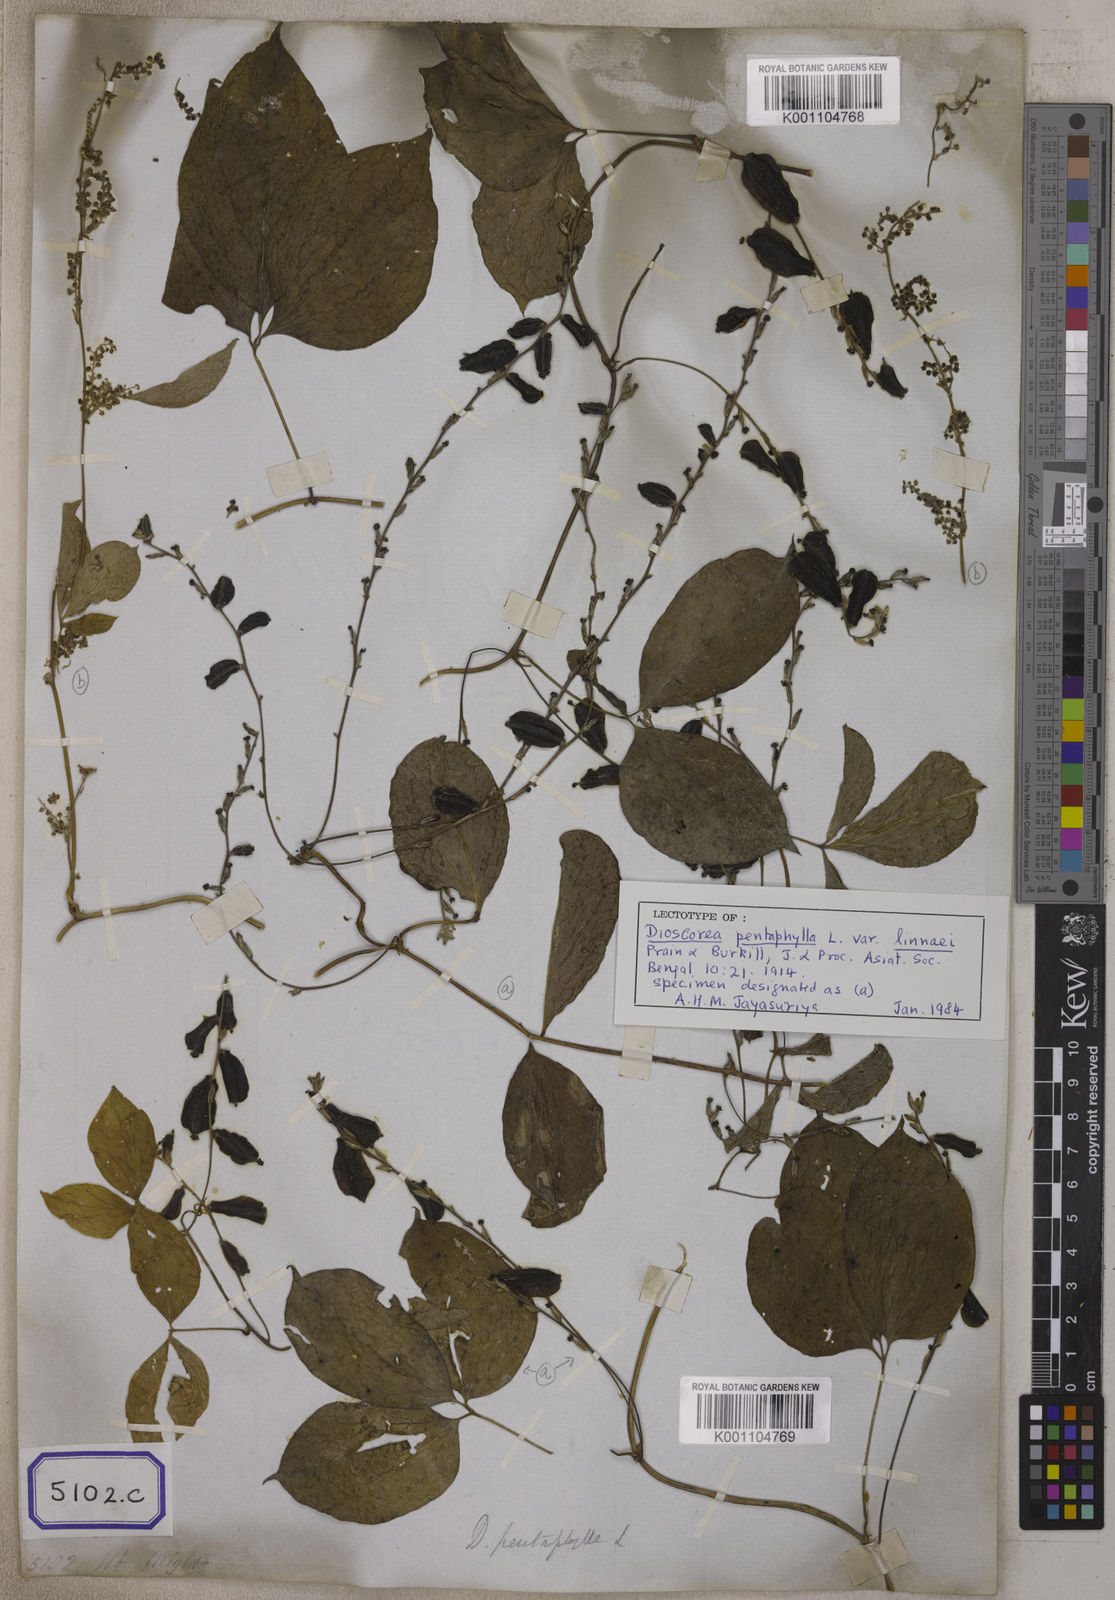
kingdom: Plantae
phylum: Tracheophyta
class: Liliopsida
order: Dioscoreales
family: Dioscoreaceae
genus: Dioscorea
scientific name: Dioscorea pentaphylla
